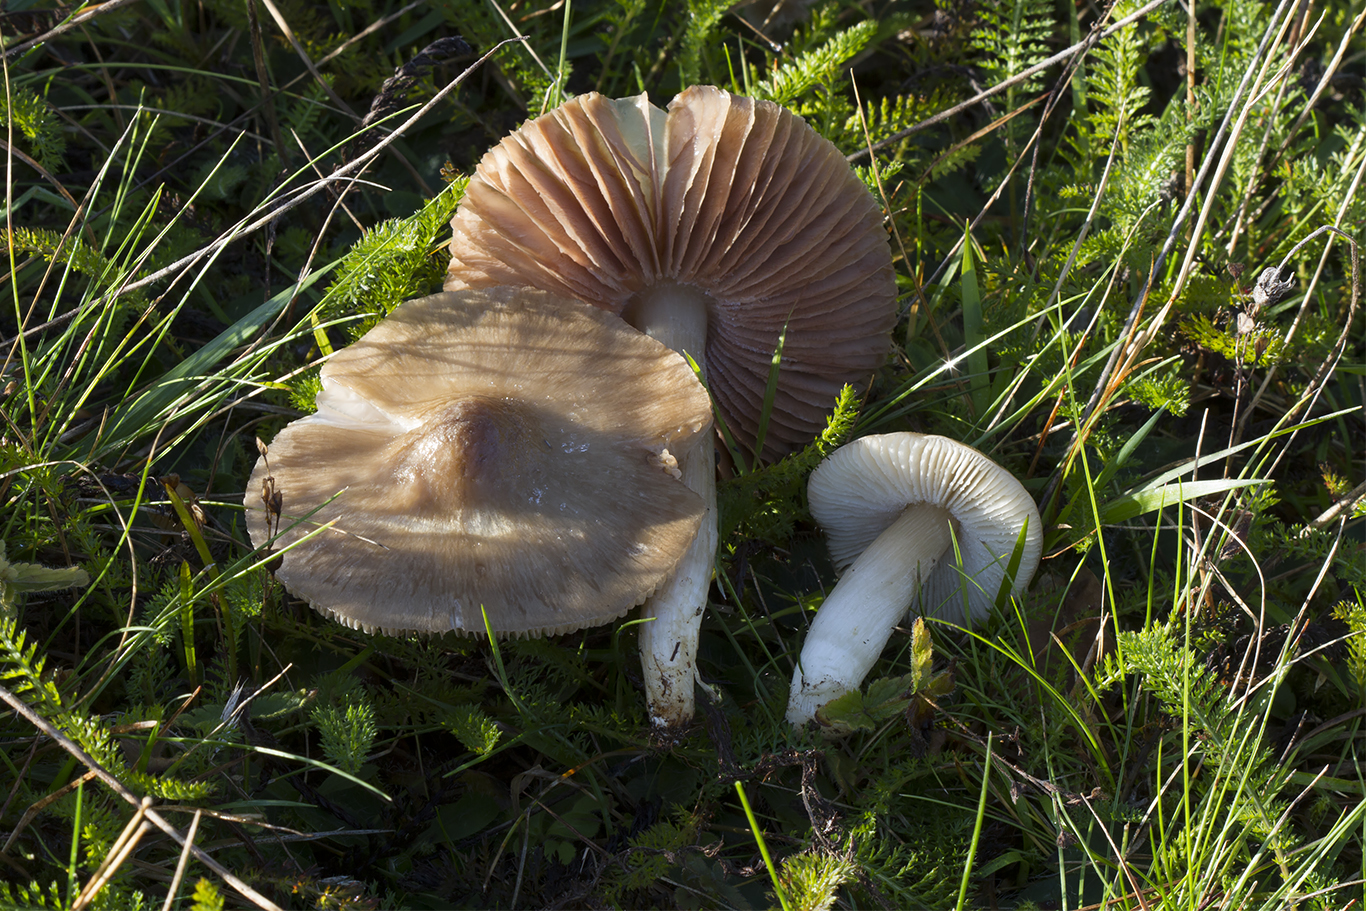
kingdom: Fungi
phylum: Basidiomycota
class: Agaricomycetes
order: Agaricales
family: Entolomataceae
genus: Entoloma
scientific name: Entoloma prunuloides
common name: mel-rødblad
